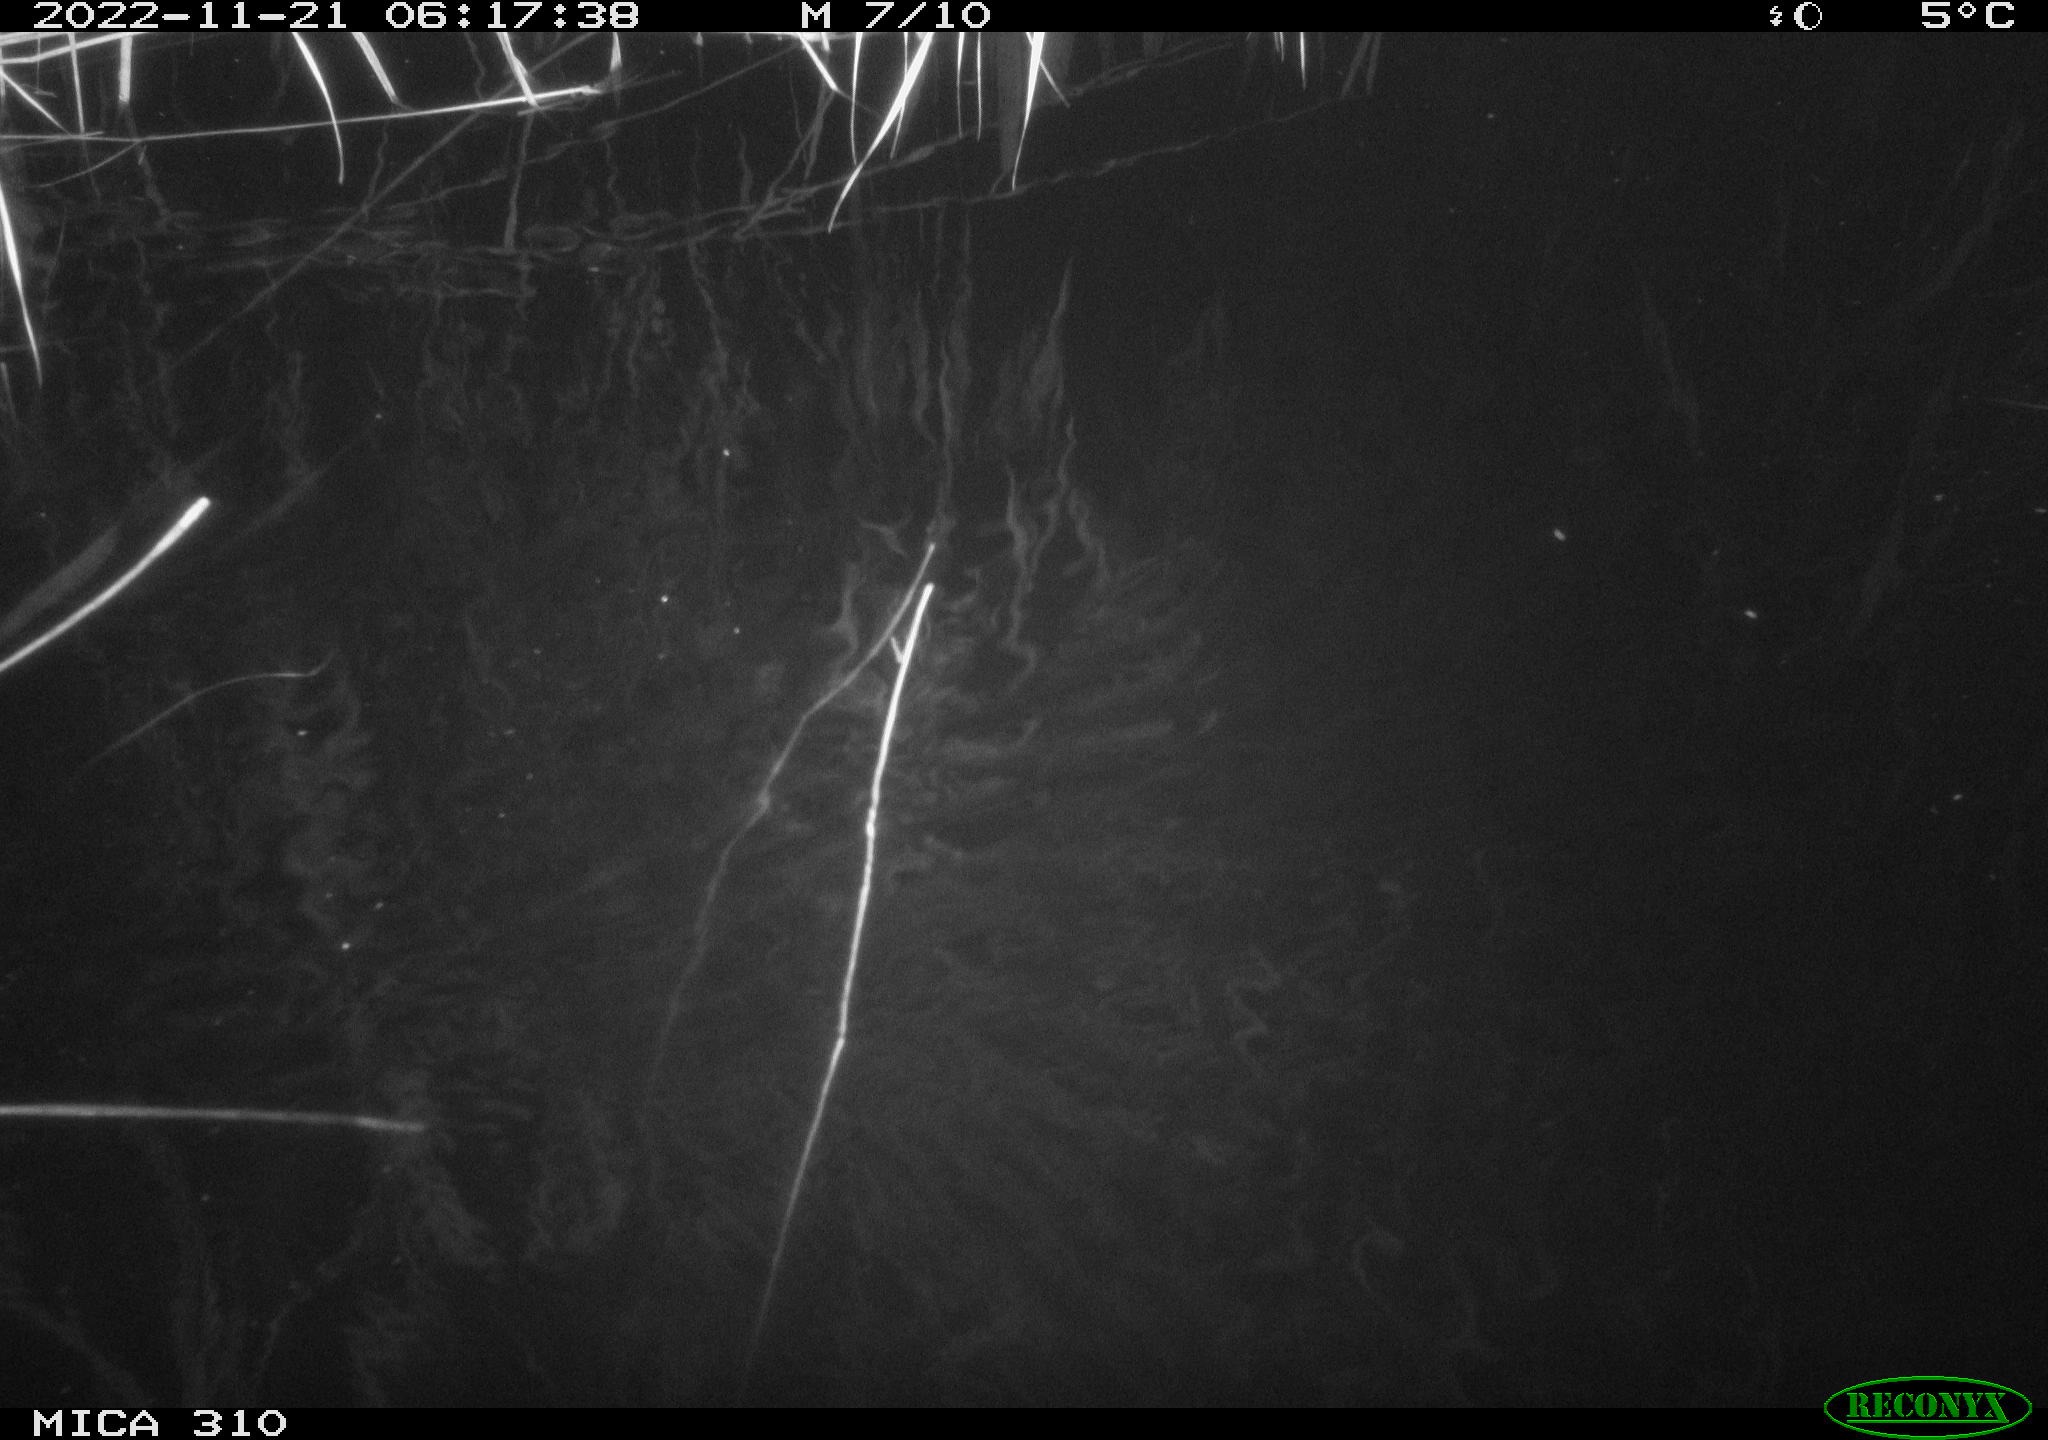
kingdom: Animalia
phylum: Chordata
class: Mammalia
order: Rodentia
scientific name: Rodentia
